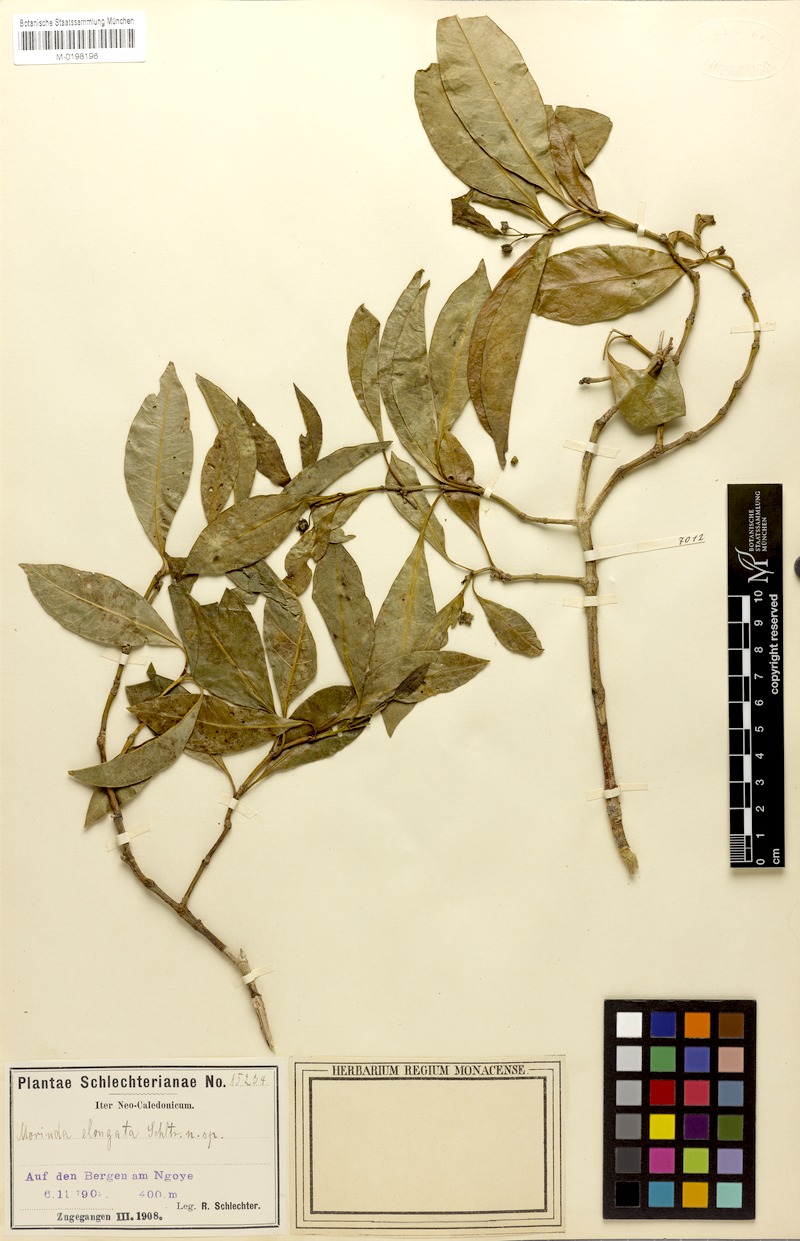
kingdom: Plantae
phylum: Tracheophyta
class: Magnoliopsida
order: Gentianales
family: Rubiaceae
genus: Gynochthodes
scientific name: Gynochthodes collina
